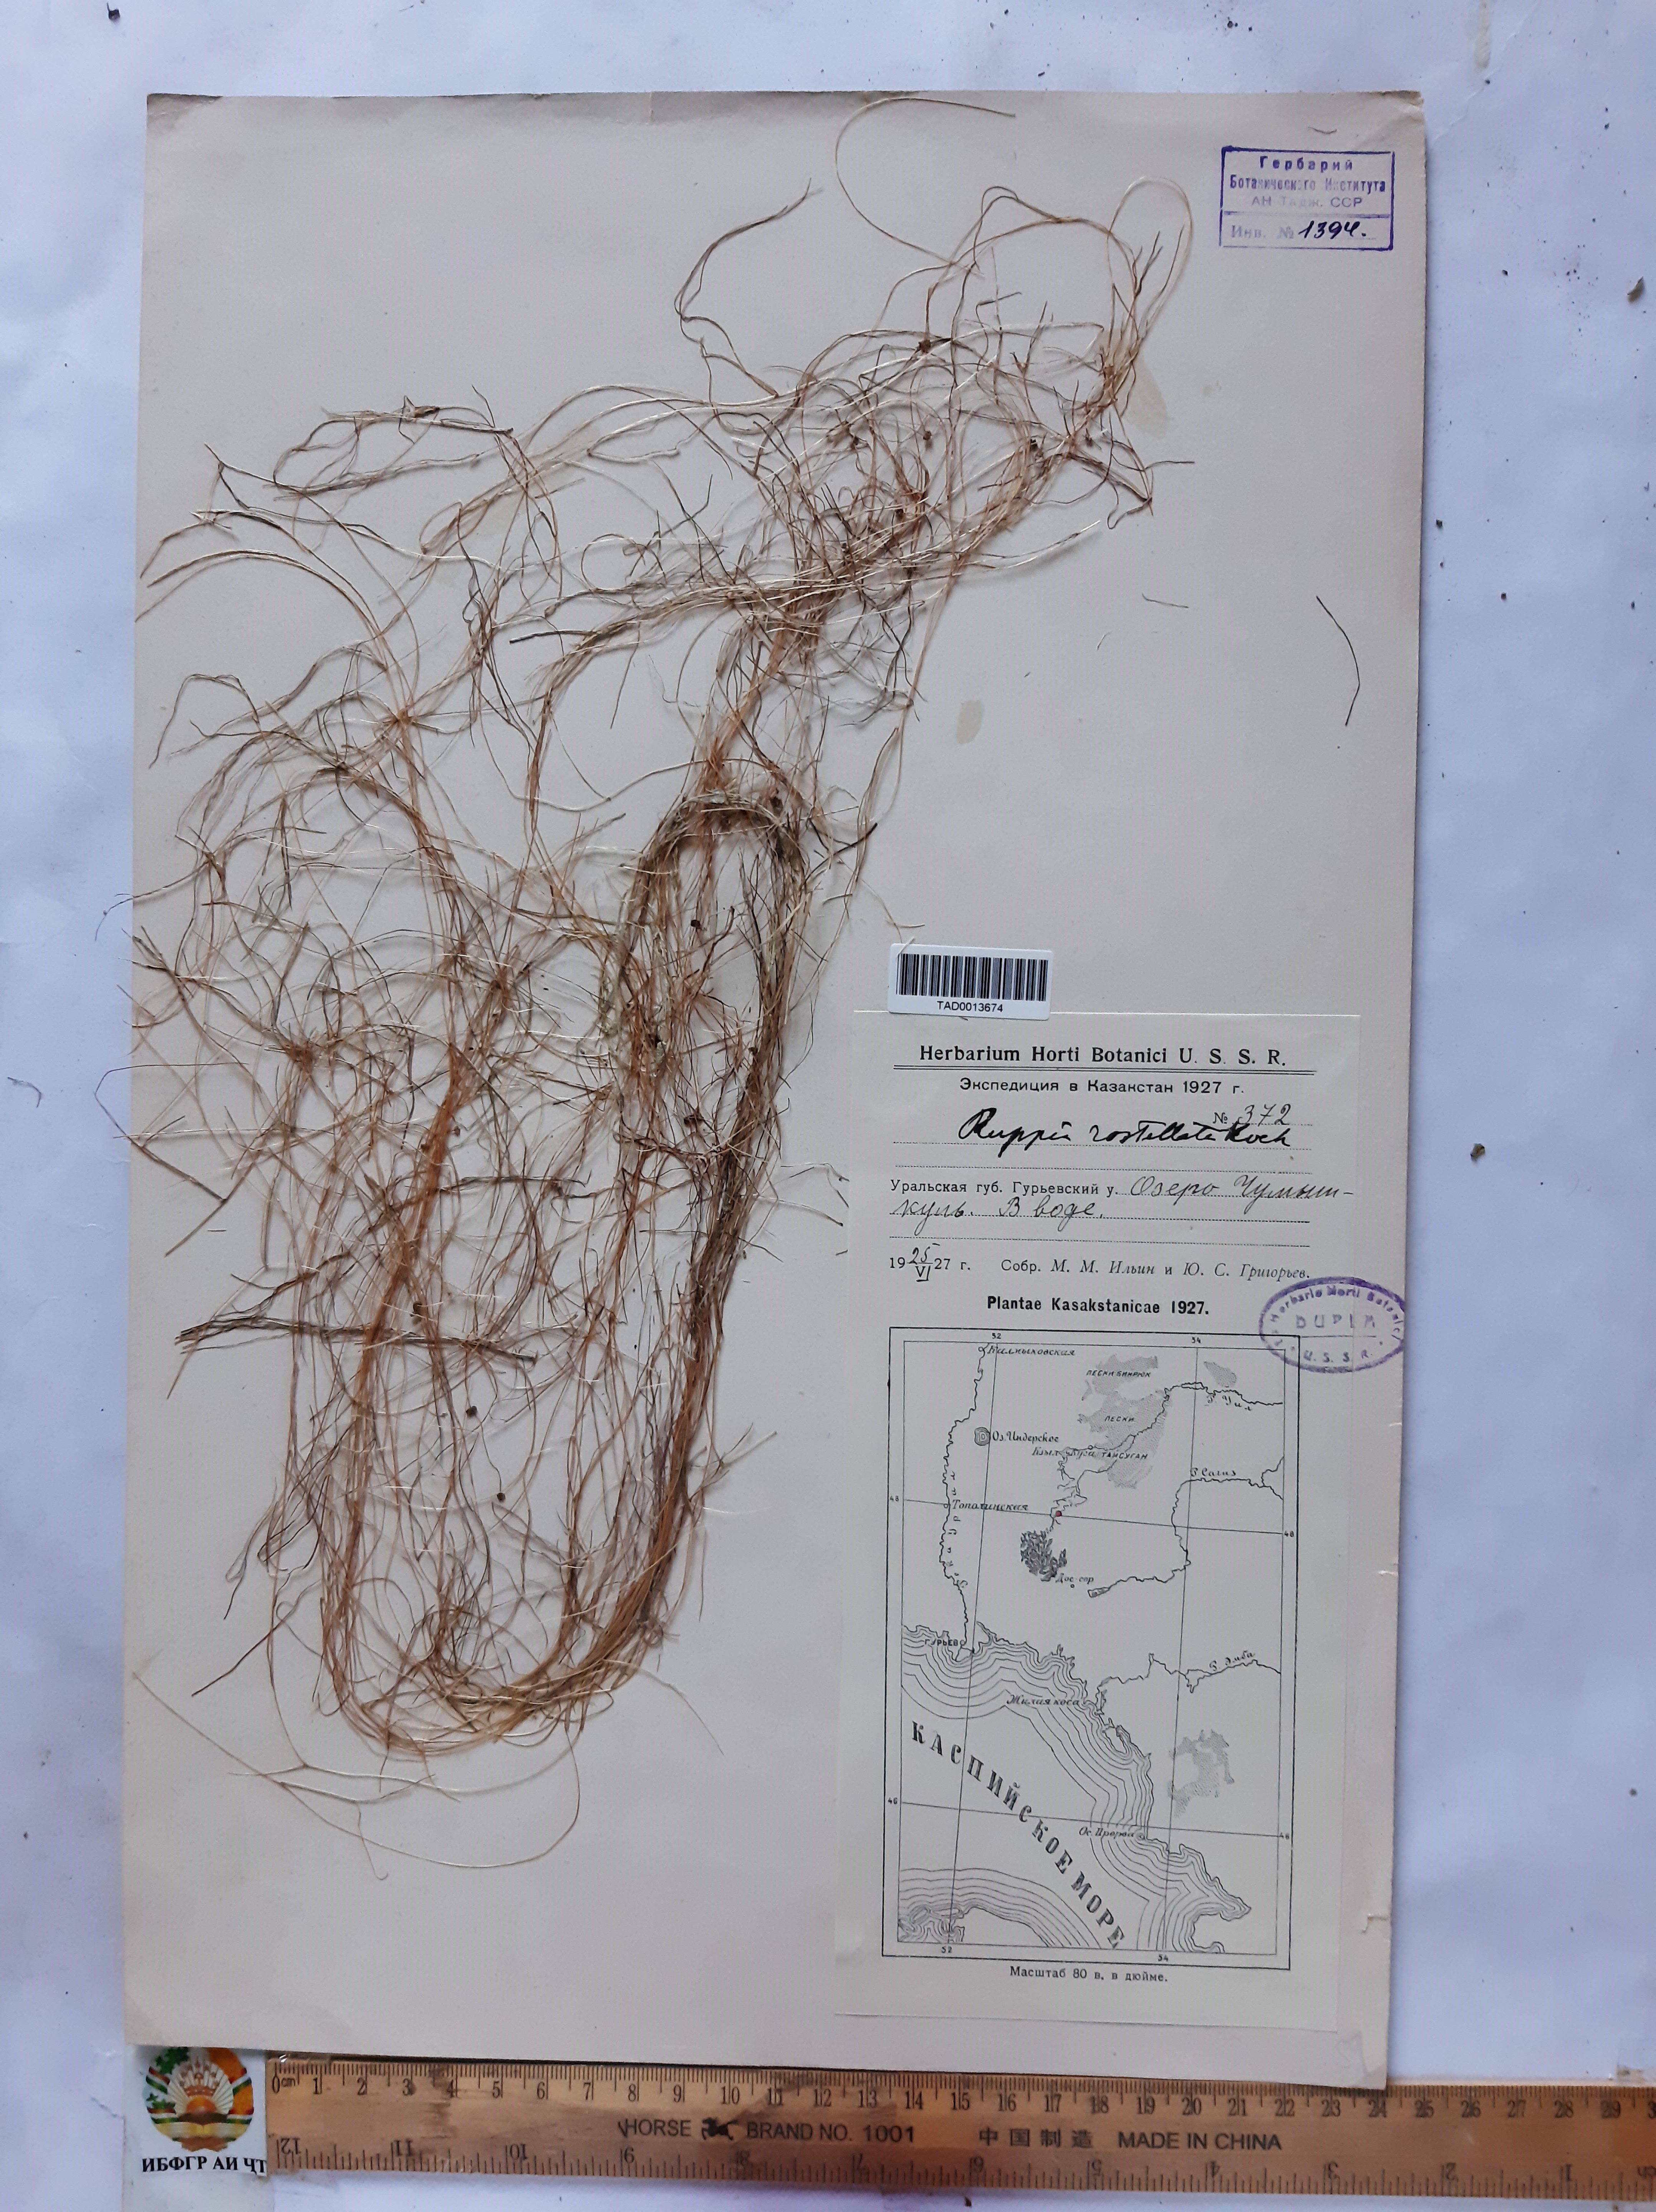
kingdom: Plantae
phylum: Tracheophyta
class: Liliopsida
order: Alismatales
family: Ruppiaceae
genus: Ruppia
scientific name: Ruppia maritima
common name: Beaked tasselweed
